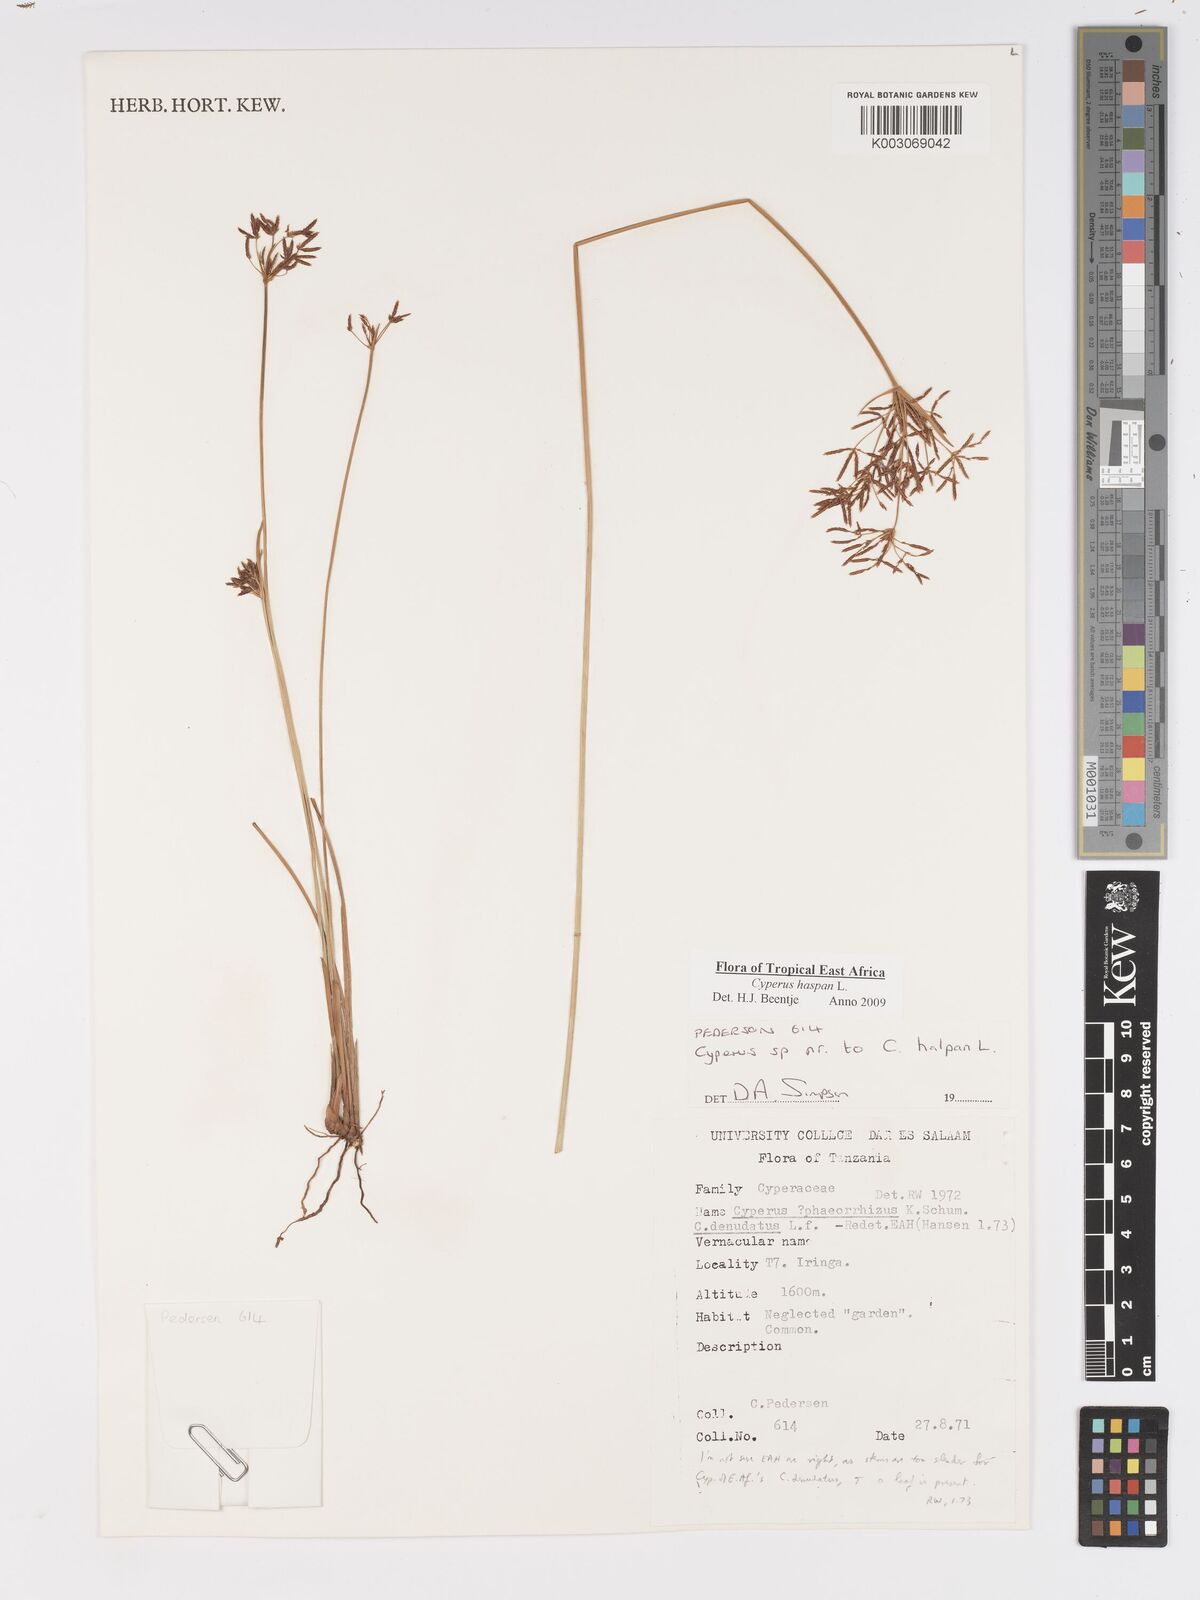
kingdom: Plantae
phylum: Tracheophyta
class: Liliopsida
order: Poales
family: Cyperaceae
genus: Cyperus
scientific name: Cyperus haspan
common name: Haspan flatsedge
